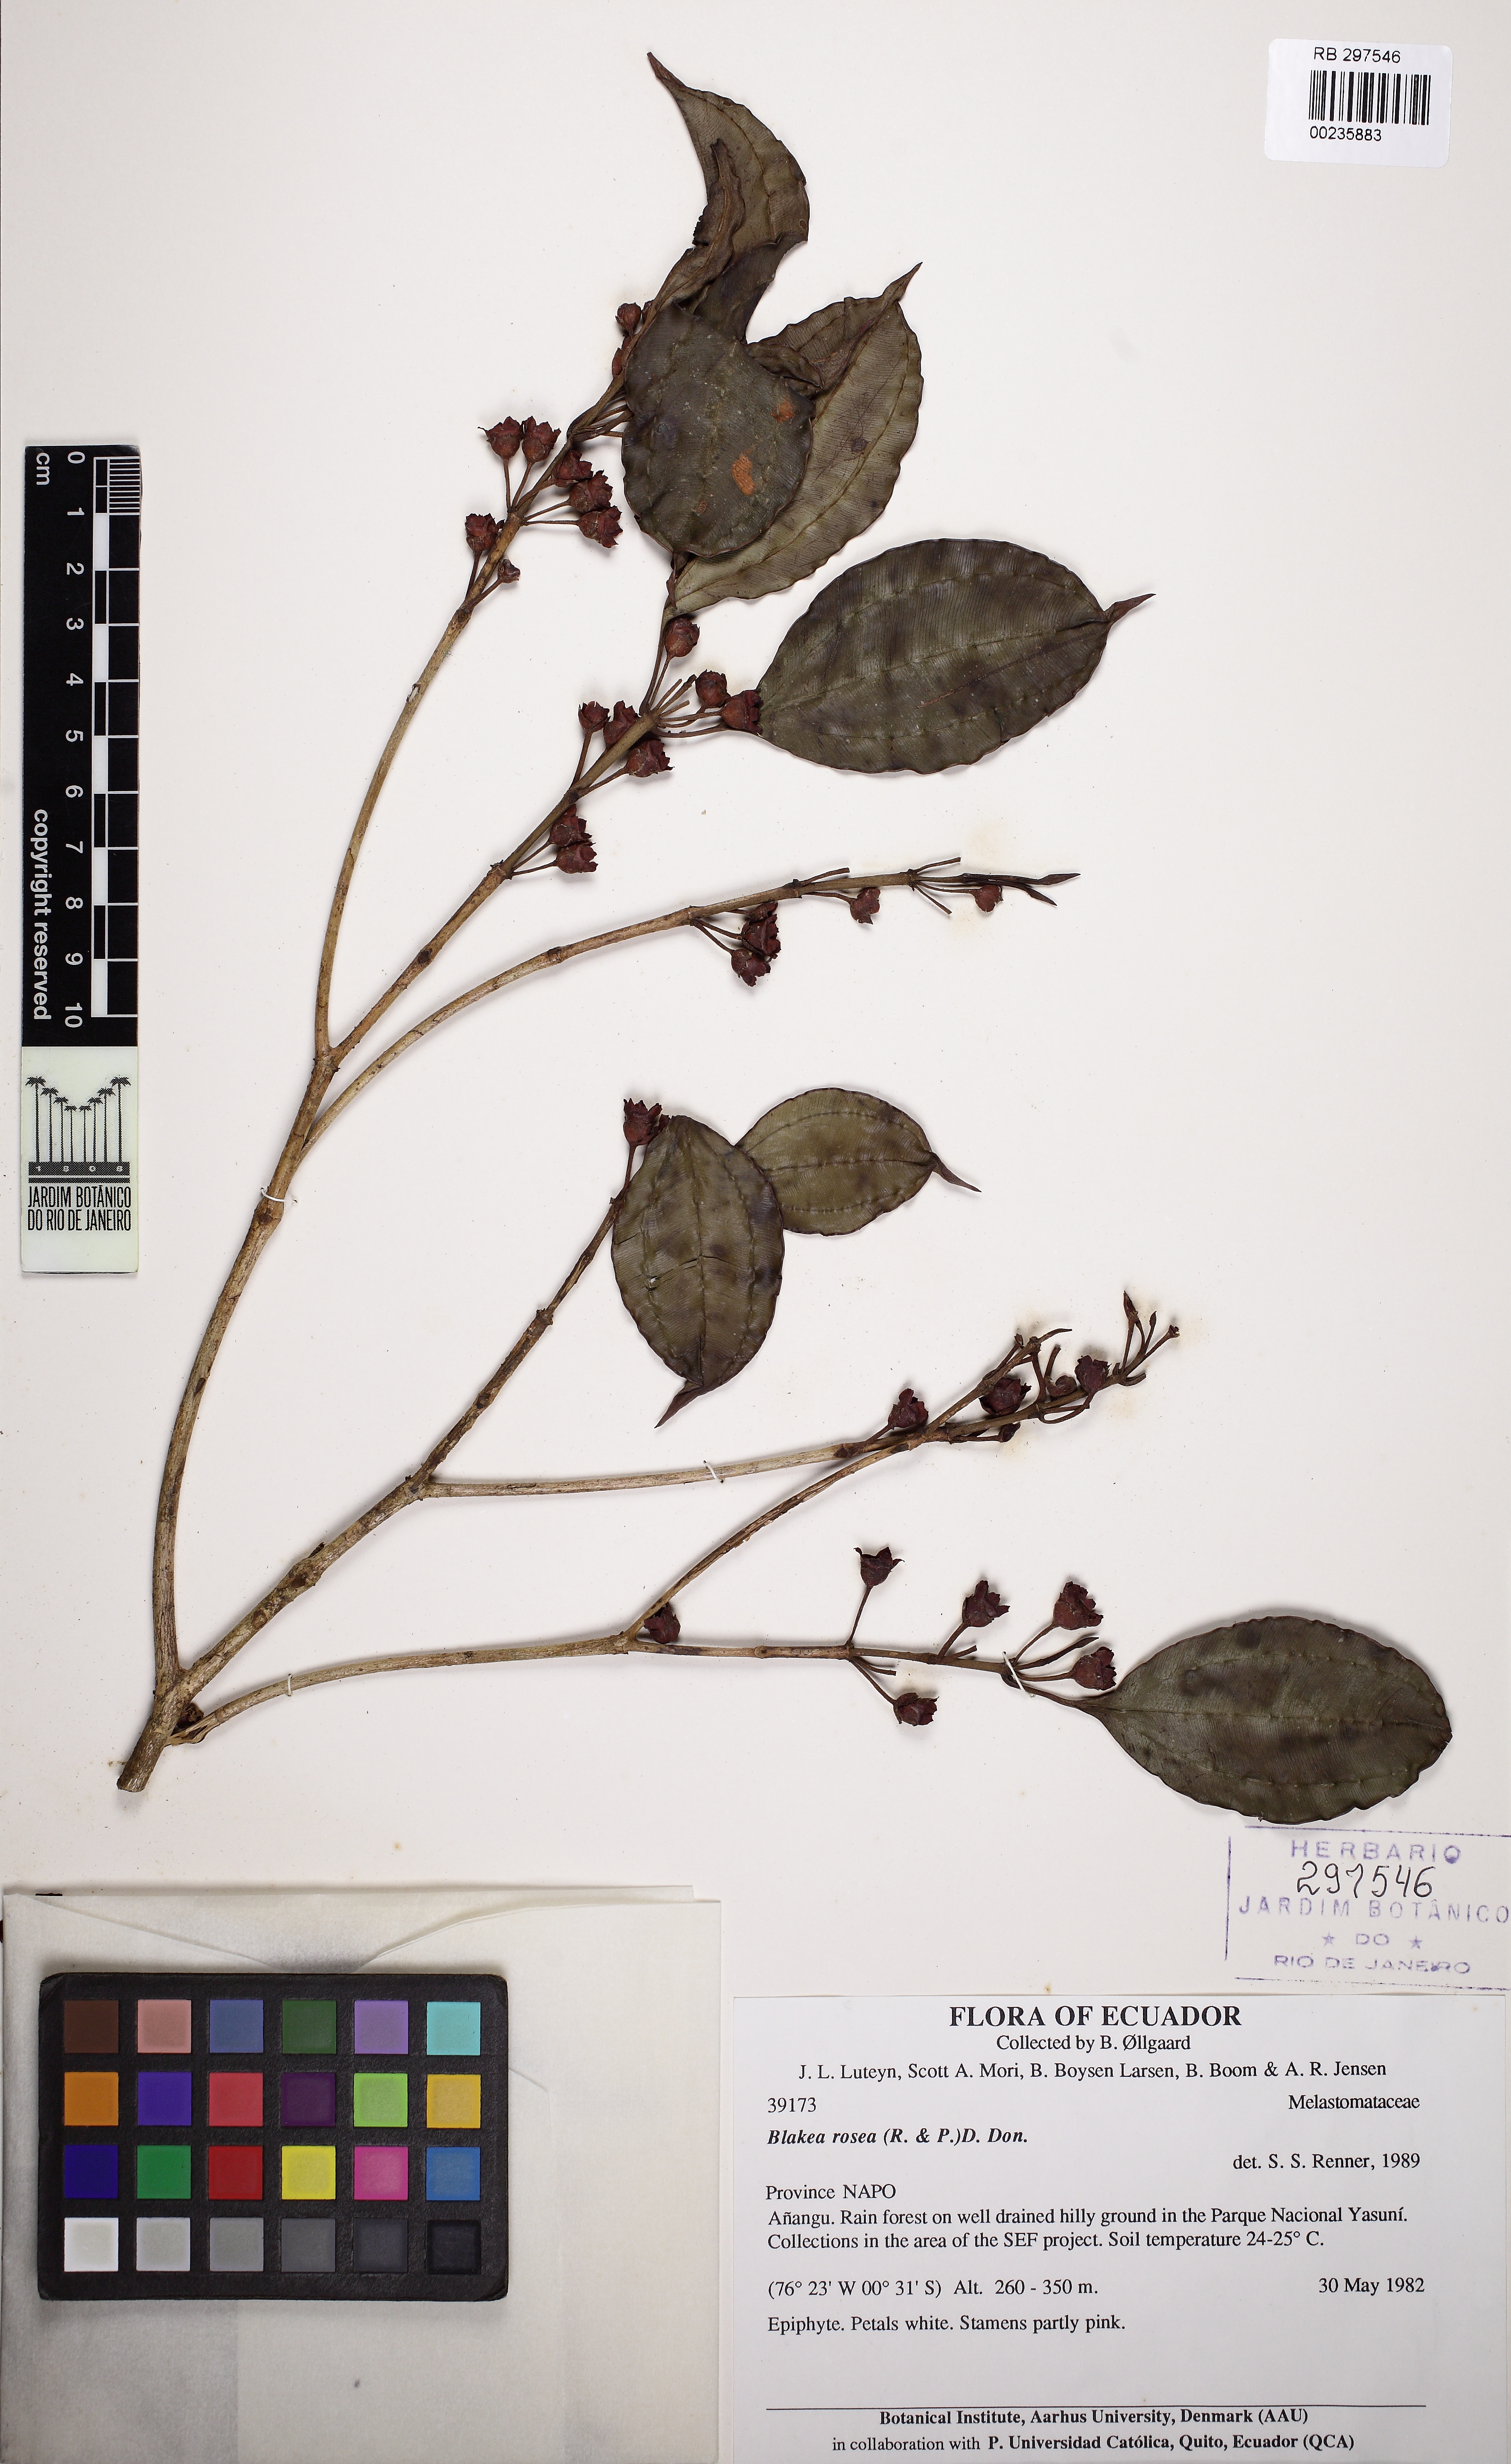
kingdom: Plantae
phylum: Tracheophyta
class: Magnoliopsida
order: Myrtales
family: Melastomataceae
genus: Blakea
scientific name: Blakea rosea
